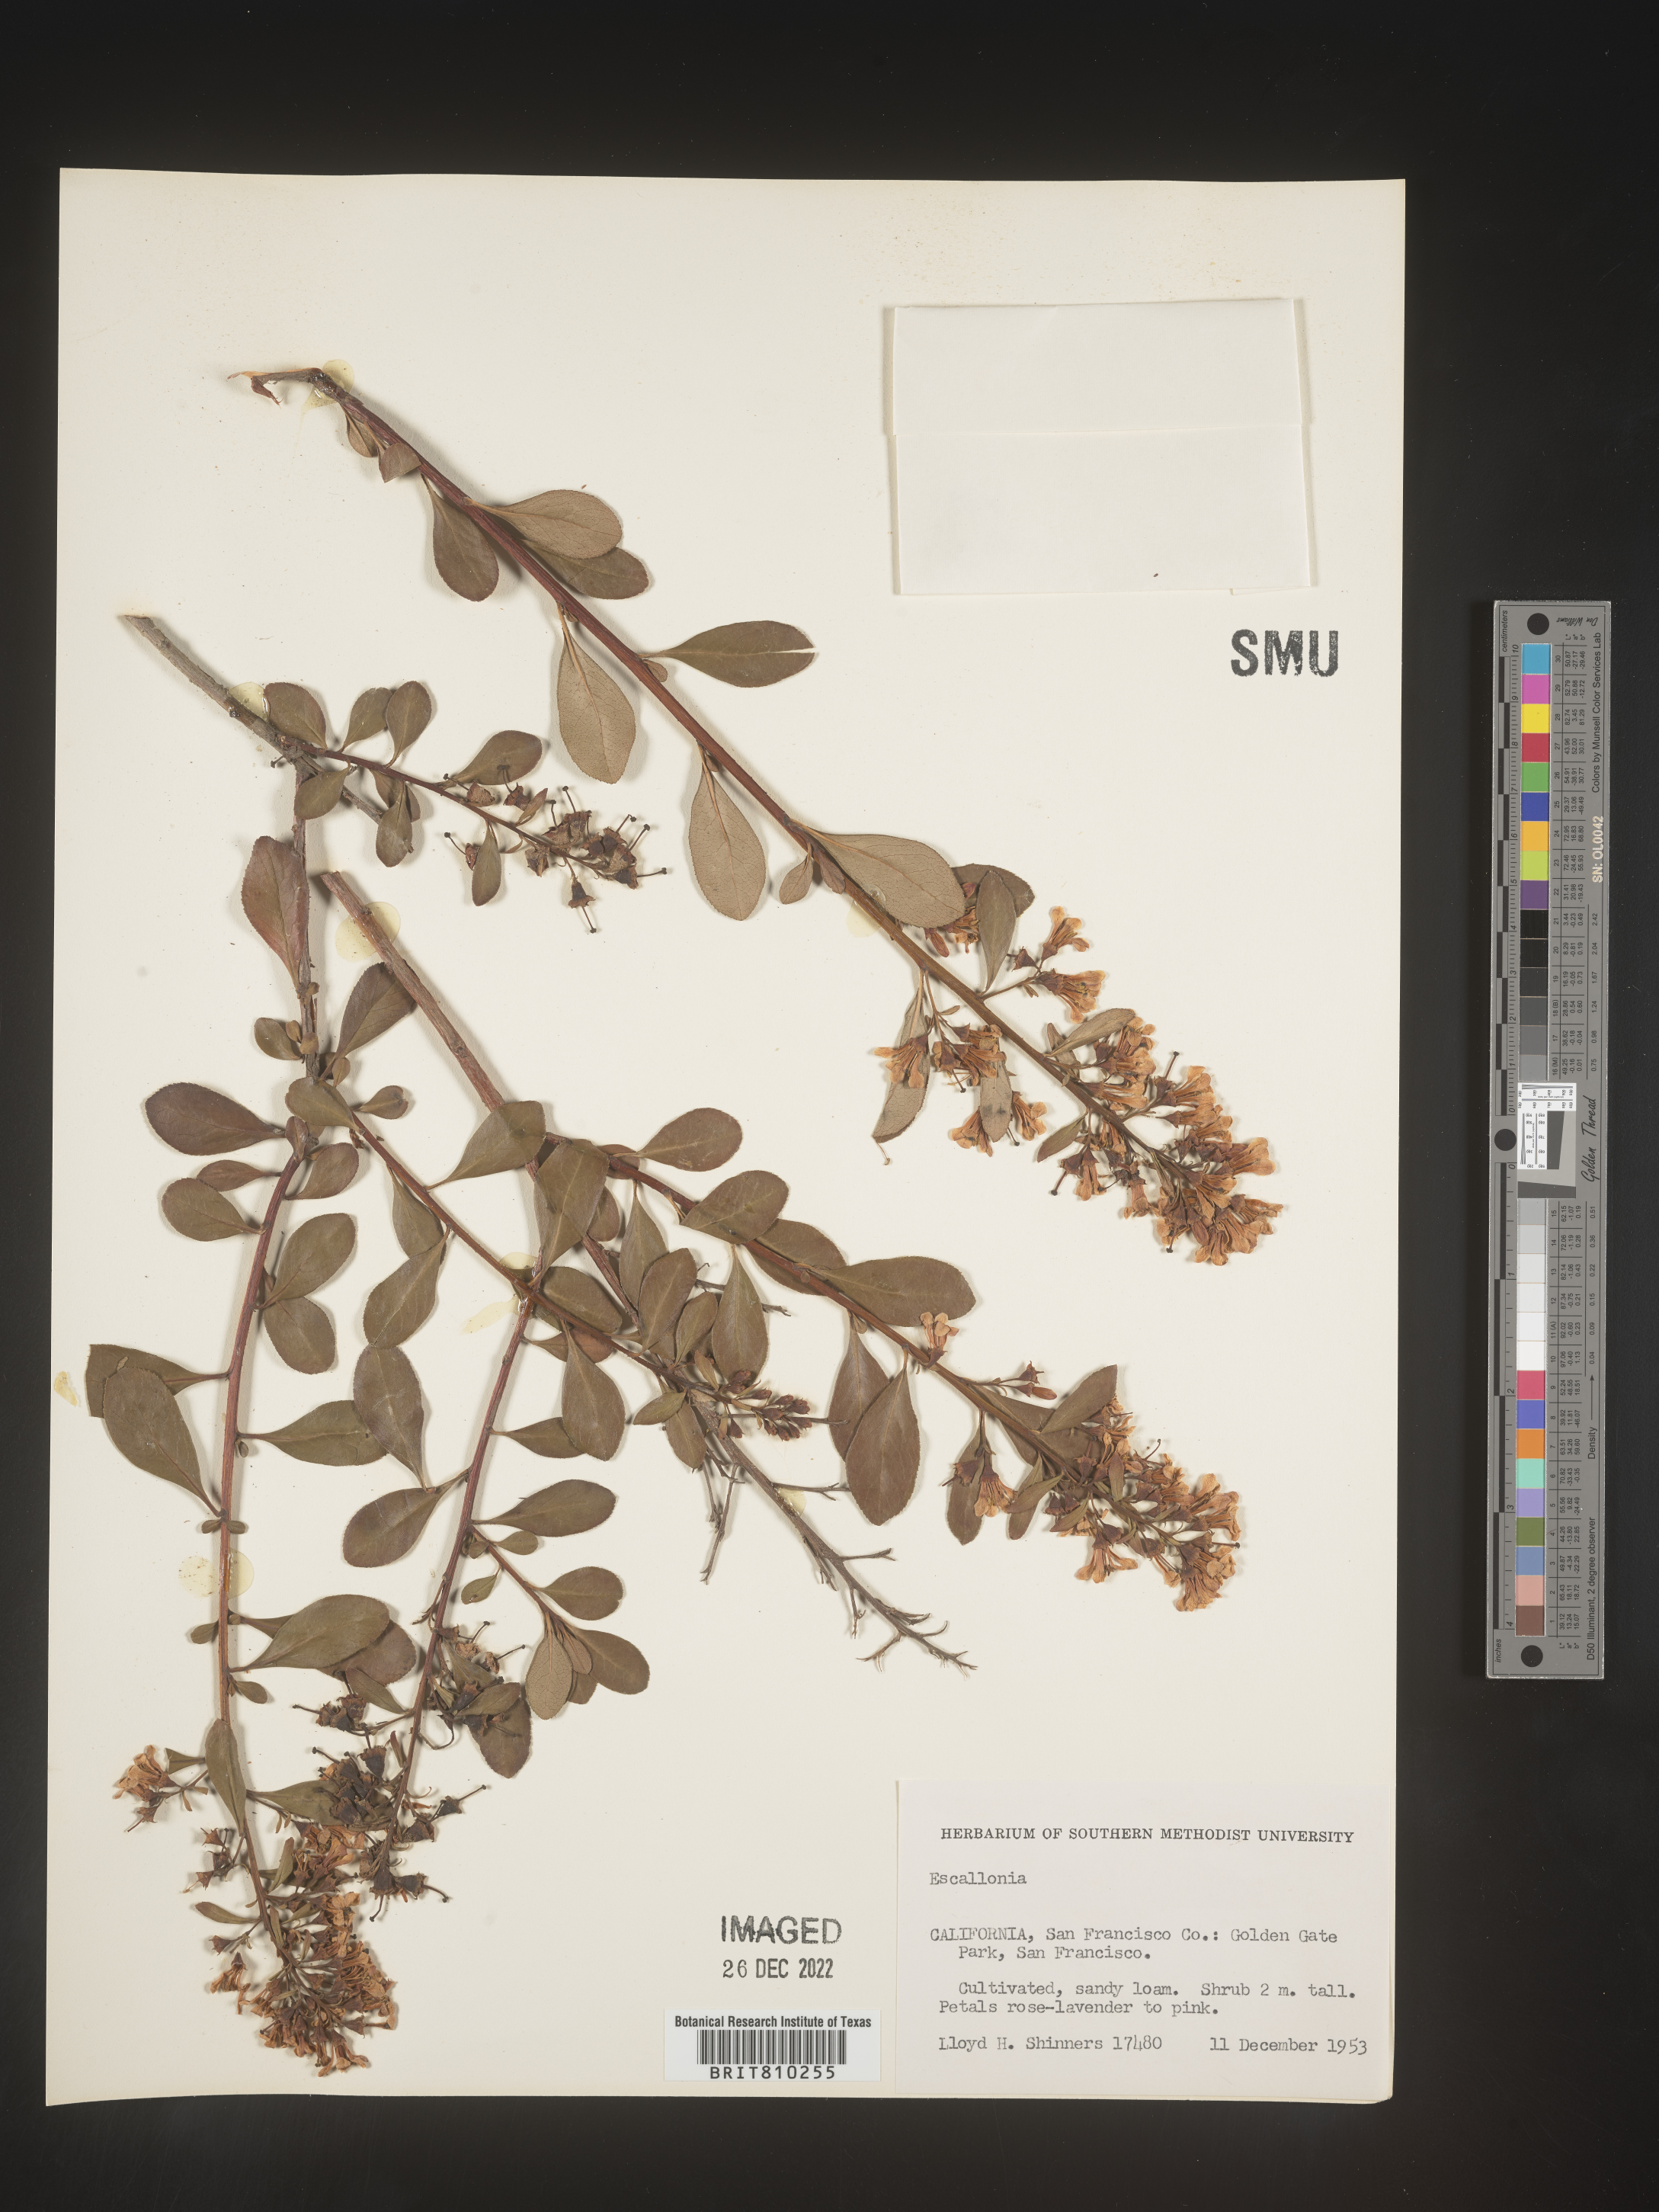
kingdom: Plantae
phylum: Tracheophyta
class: Magnoliopsida
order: Escalloniales
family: Escalloniaceae
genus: Escallonia
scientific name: Escallonia
